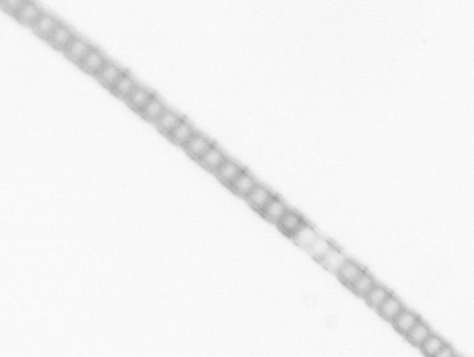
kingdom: Chromista
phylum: Ochrophyta
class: Bacillariophyceae
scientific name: Bacillariophyceae
